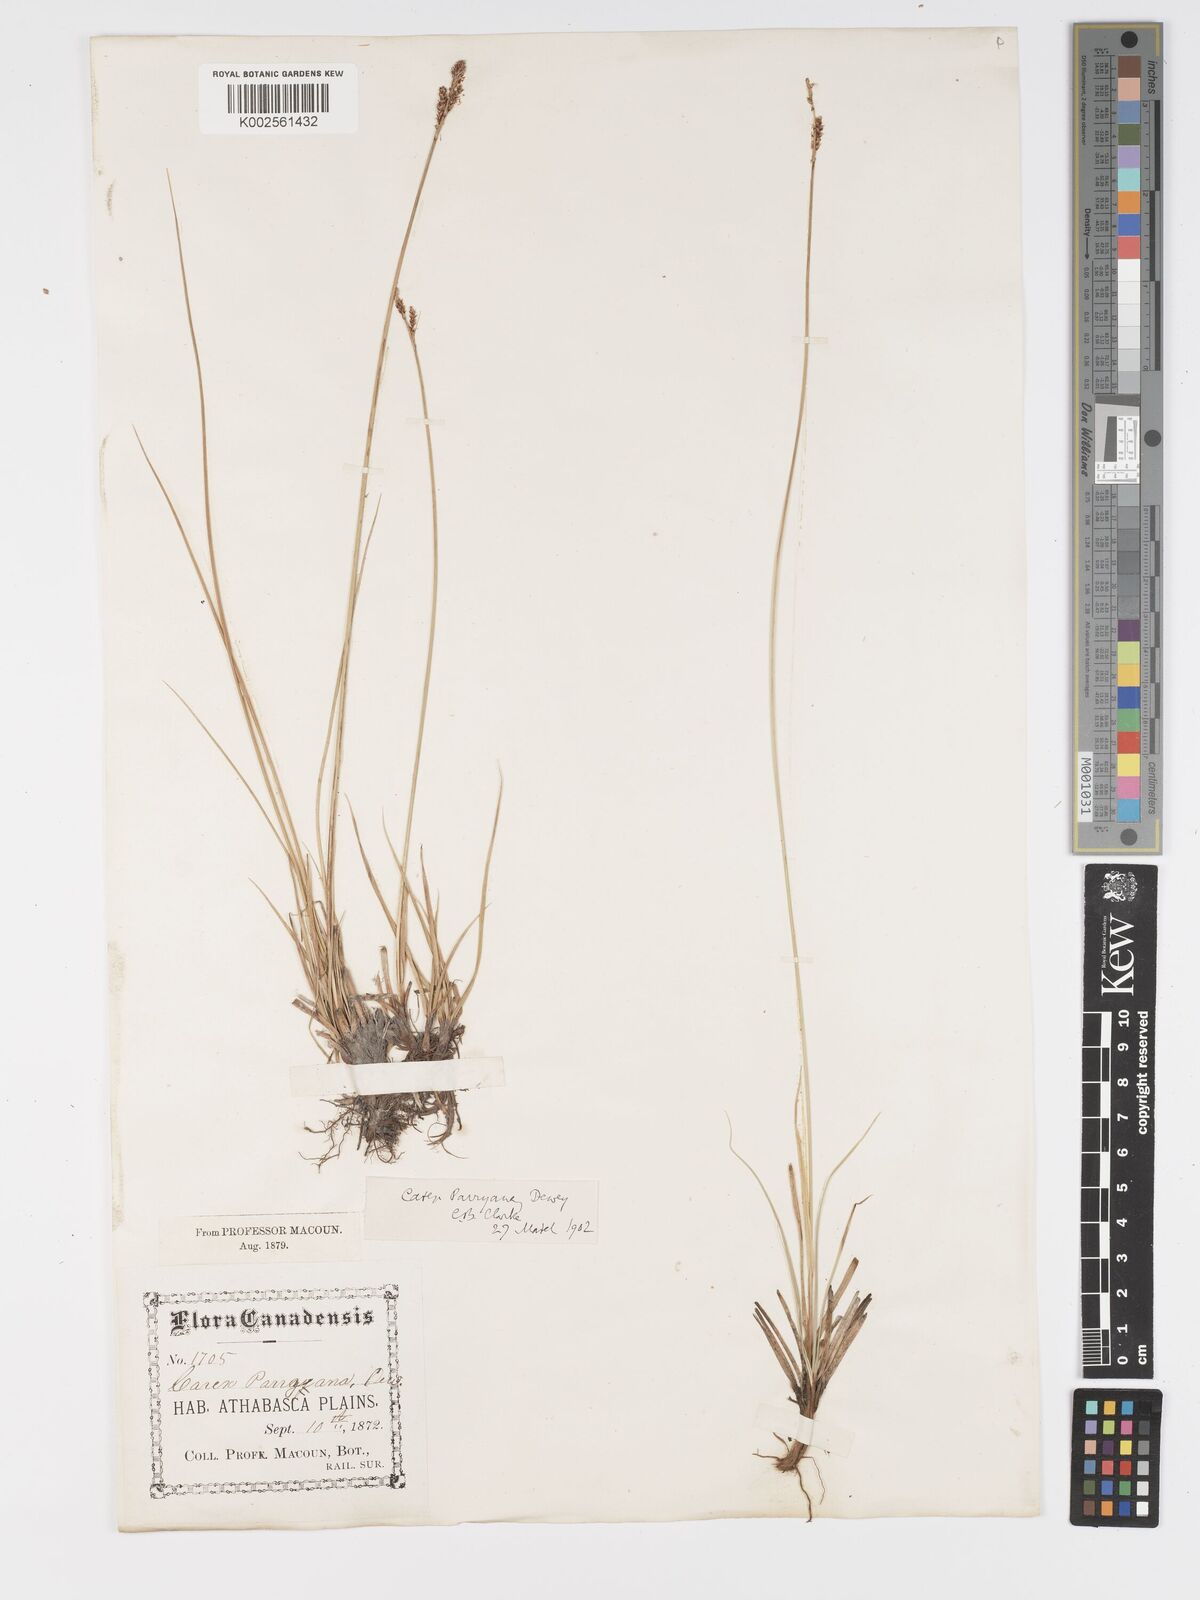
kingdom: Plantae
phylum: Tracheophyta
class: Liliopsida
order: Poales
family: Cyperaceae
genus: Carex
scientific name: Carex parryana
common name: Parry's sedge
